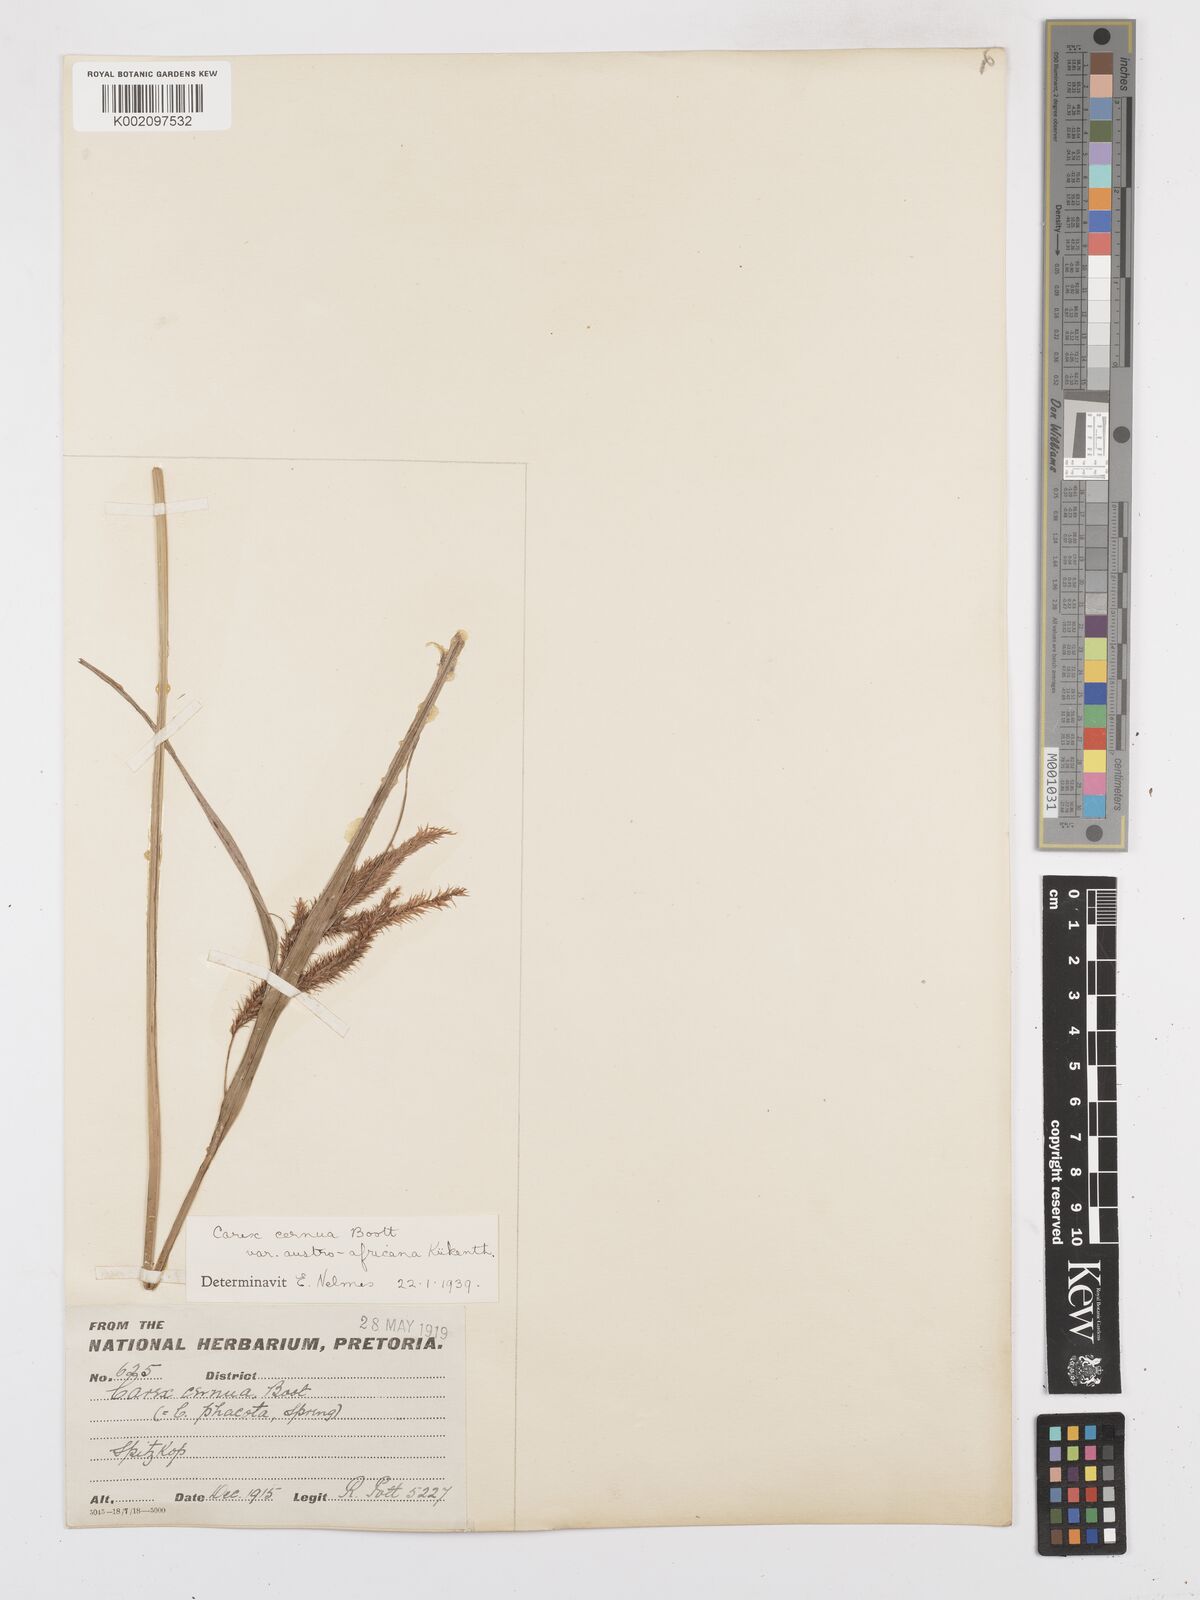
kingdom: Plantae
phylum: Tracheophyta
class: Liliopsida
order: Poales
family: Cyperaceae
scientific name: Cyperaceae
